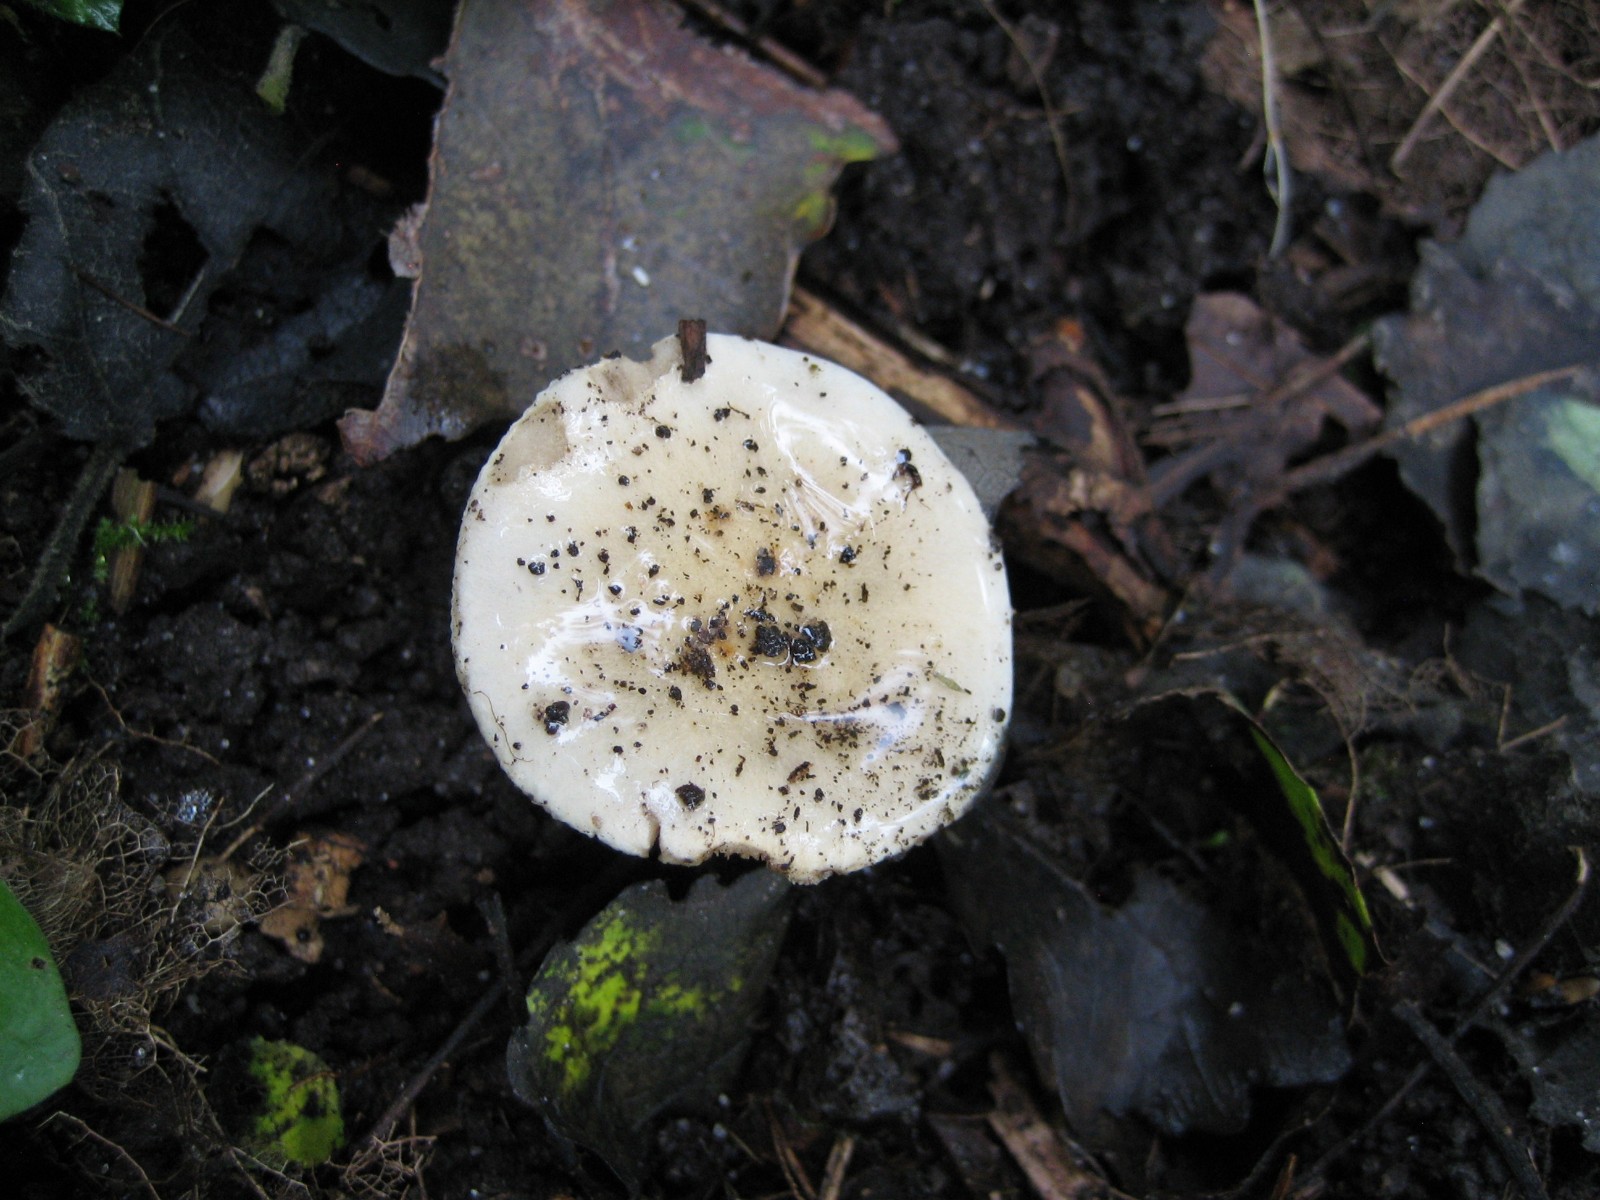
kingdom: Fungi
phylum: Basidiomycota
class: Agaricomycetes
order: Agaricales
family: Hymenogastraceae
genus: Hebeloma
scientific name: Hebeloma
